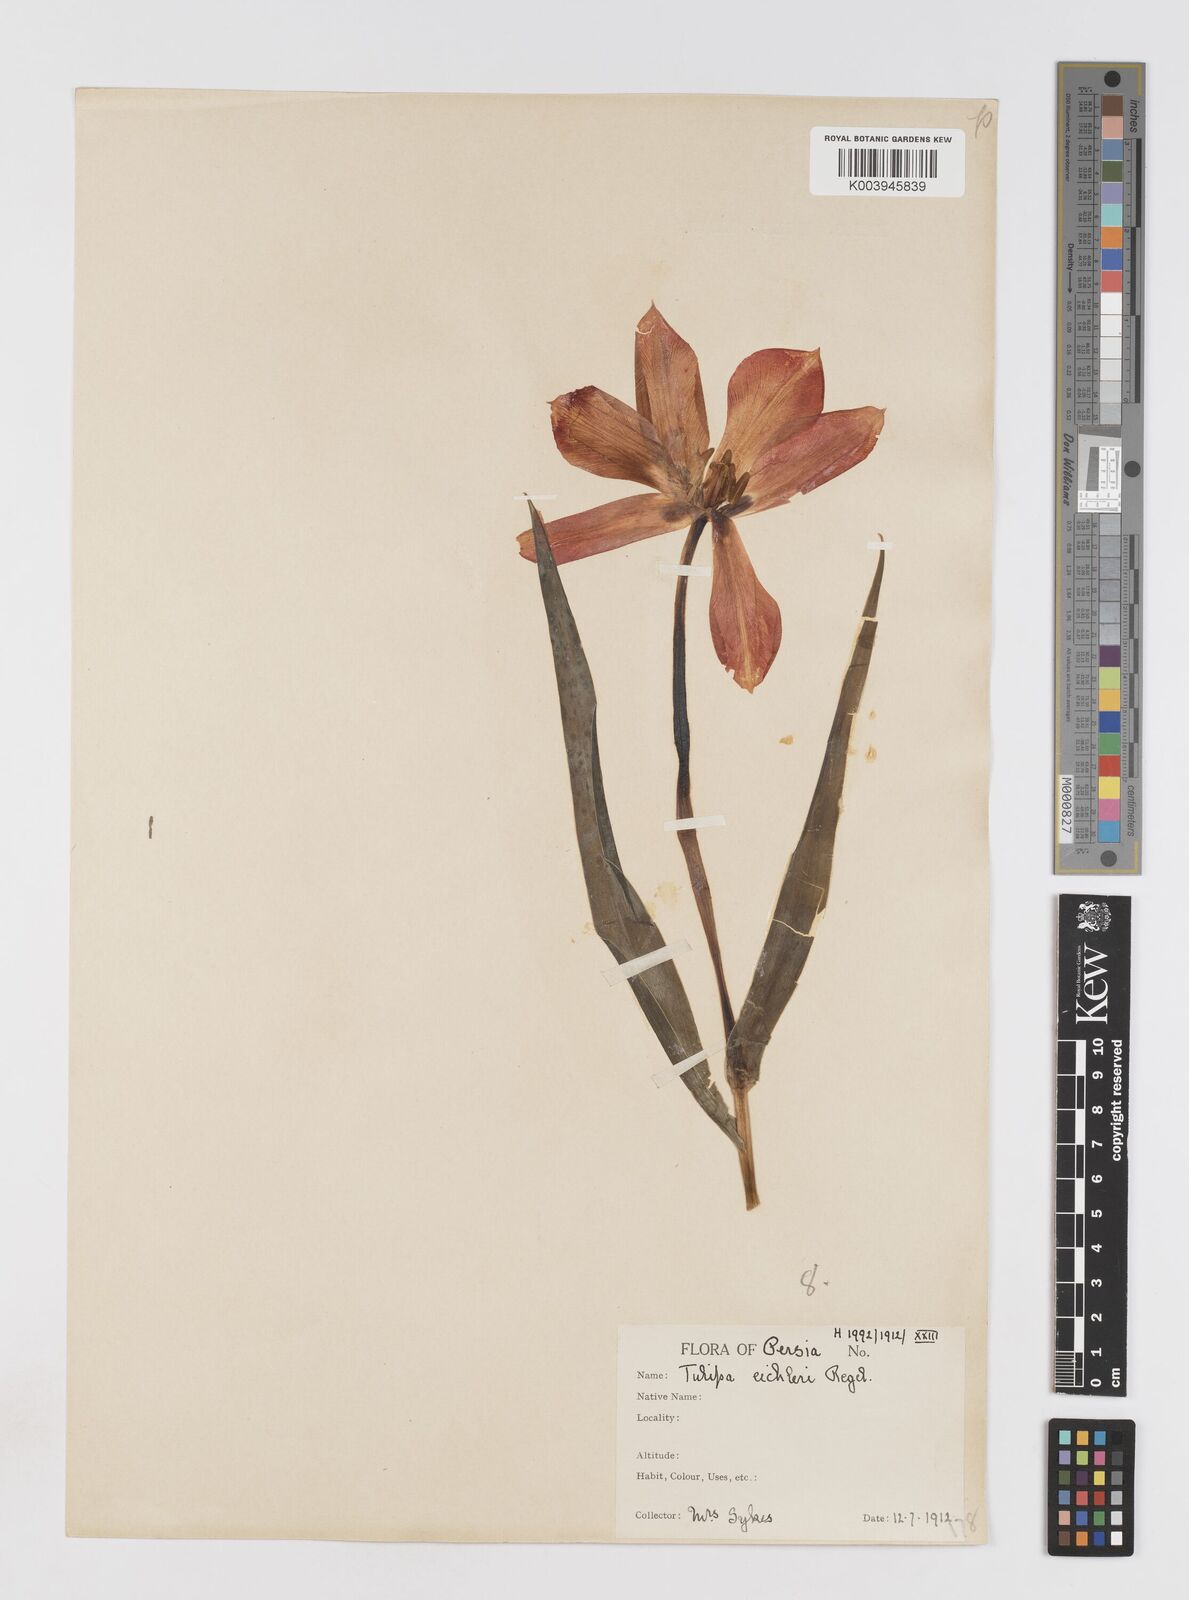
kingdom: Plantae
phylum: Tracheophyta
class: Liliopsida
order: Liliales
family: Liliaceae
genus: Tulipa
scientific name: Tulipa undulatifolia
